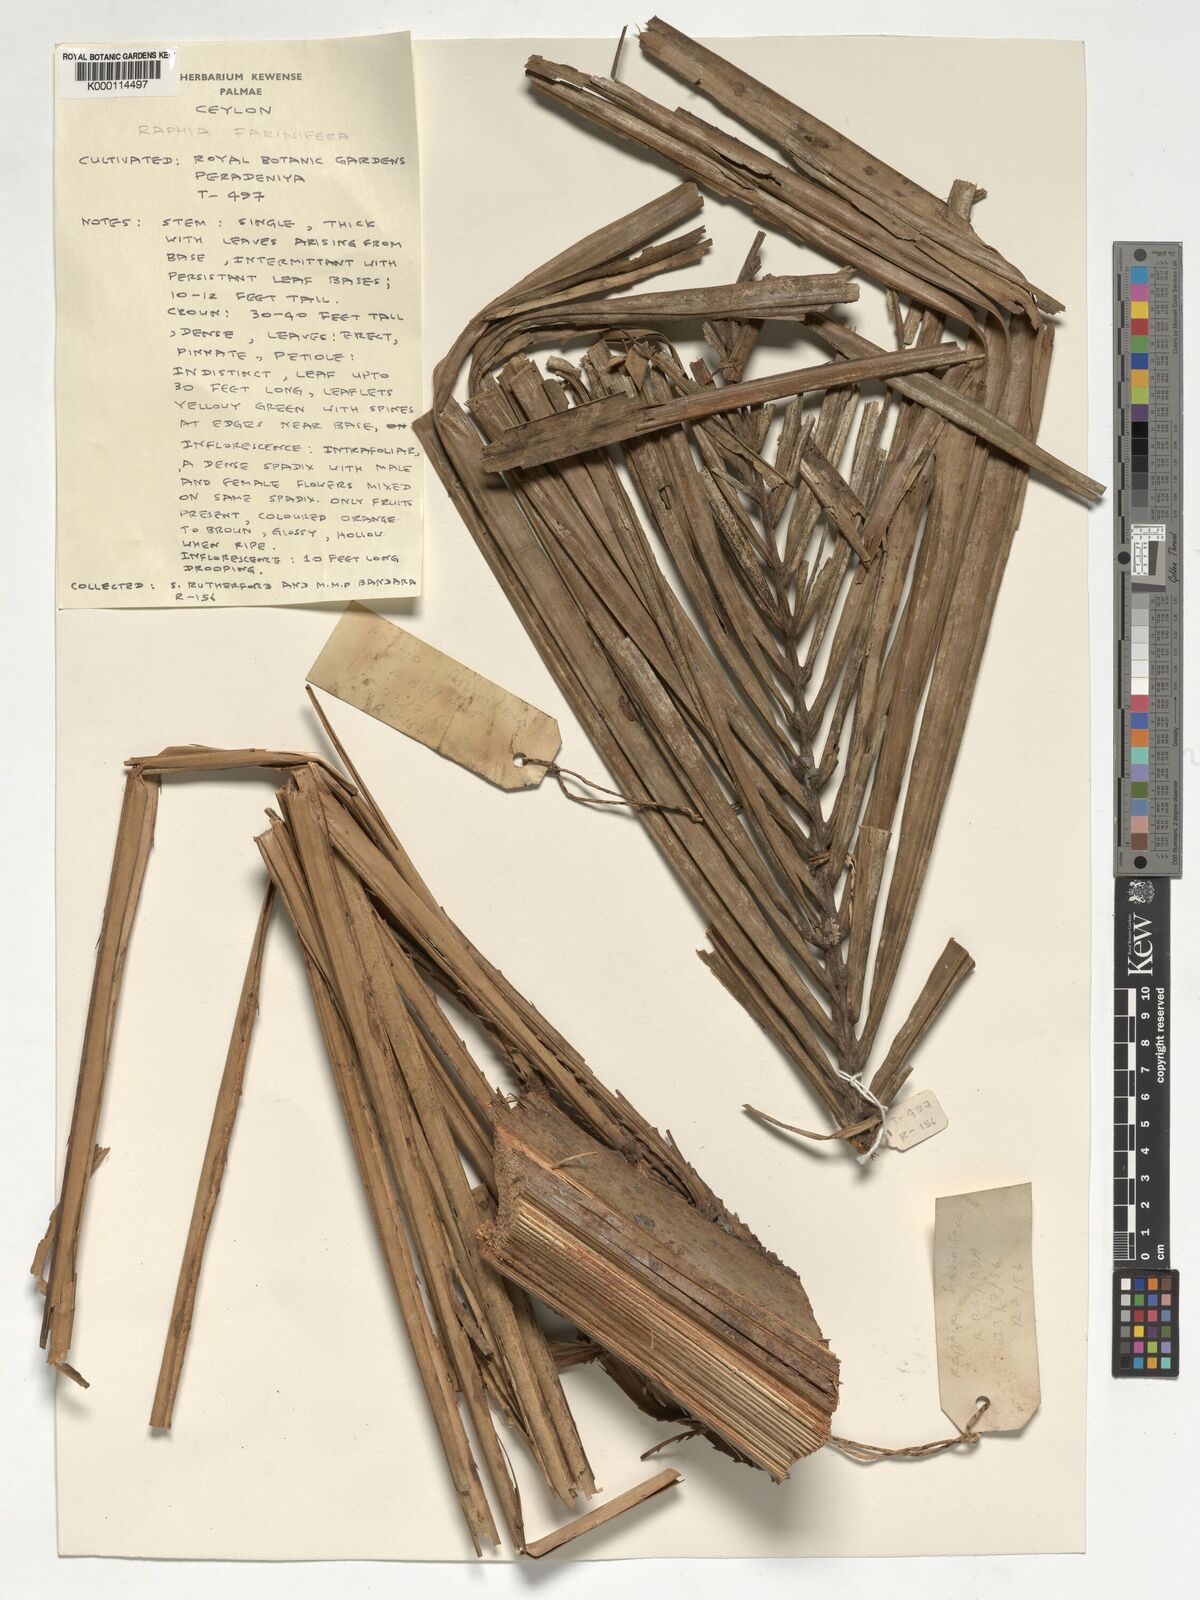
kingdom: Plantae
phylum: Tracheophyta
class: Liliopsida
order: Arecales
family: Arecaceae
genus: Raphia
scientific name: Raphia farinifera
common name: Raphia palm
